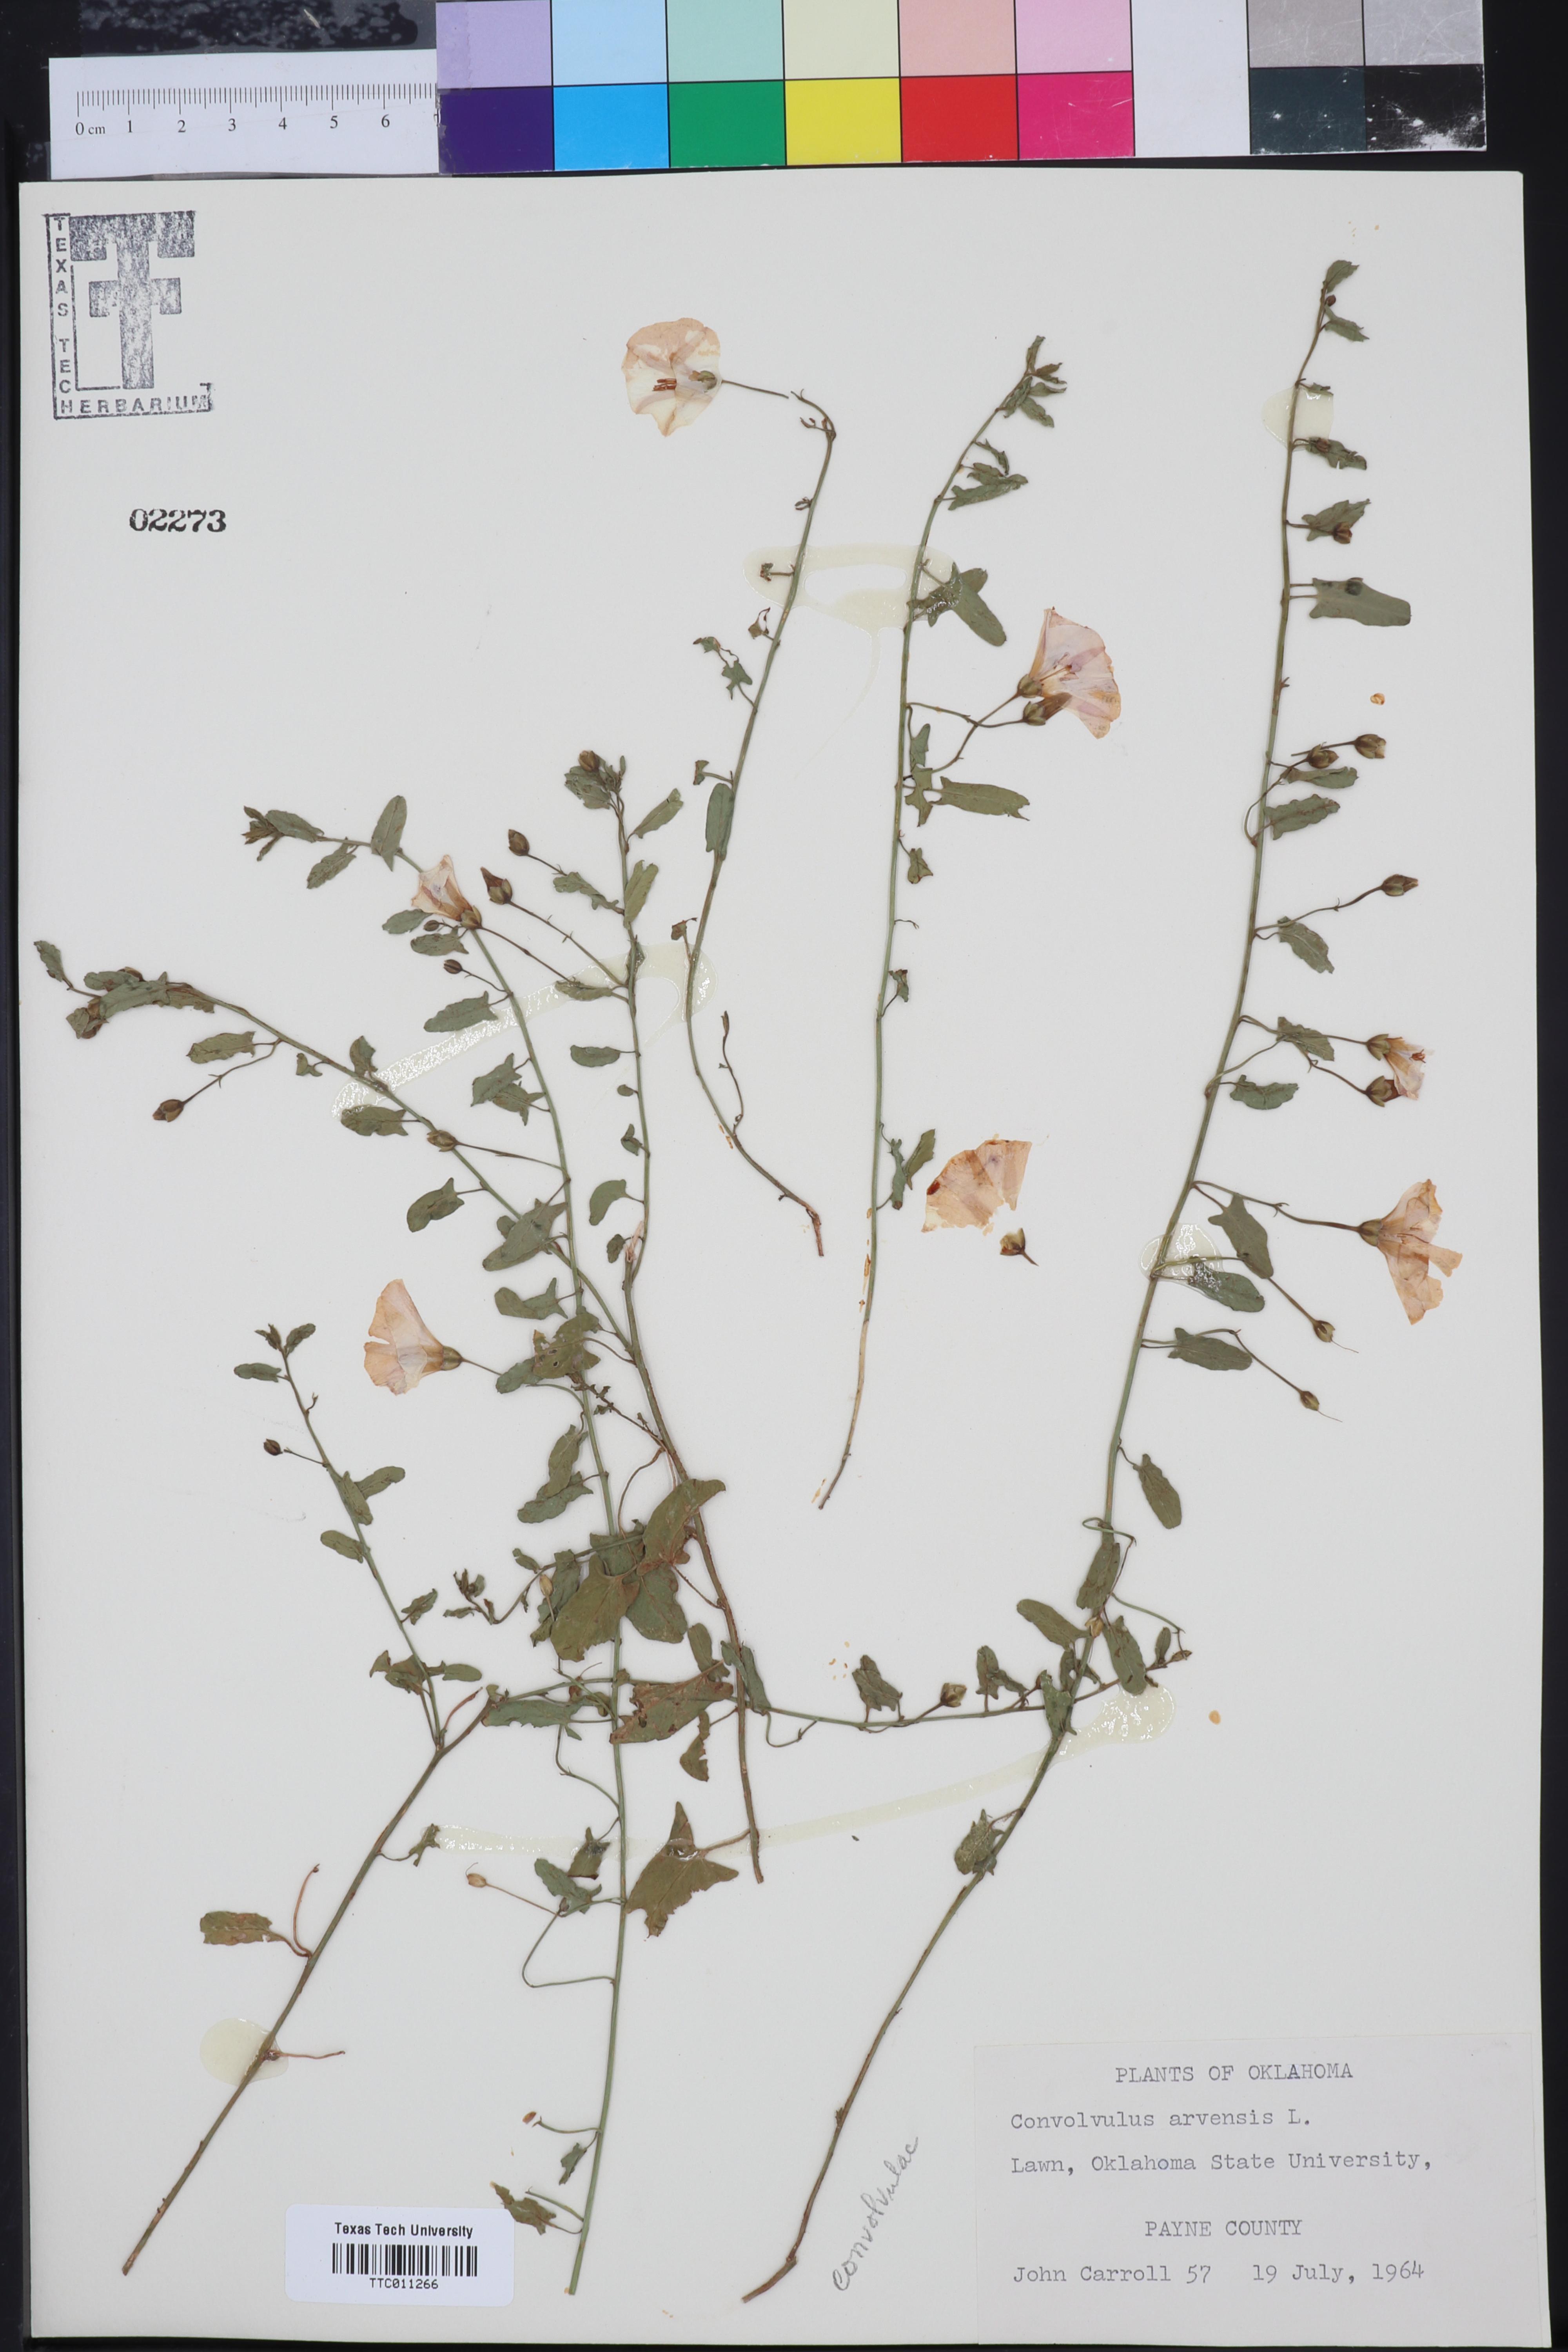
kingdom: Plantae
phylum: Tracheophyta
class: Magnoliopsida
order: Solanales
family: Convolvulaceae
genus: Convolvulus
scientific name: Convolvulus arvensis
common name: Field bindweed
